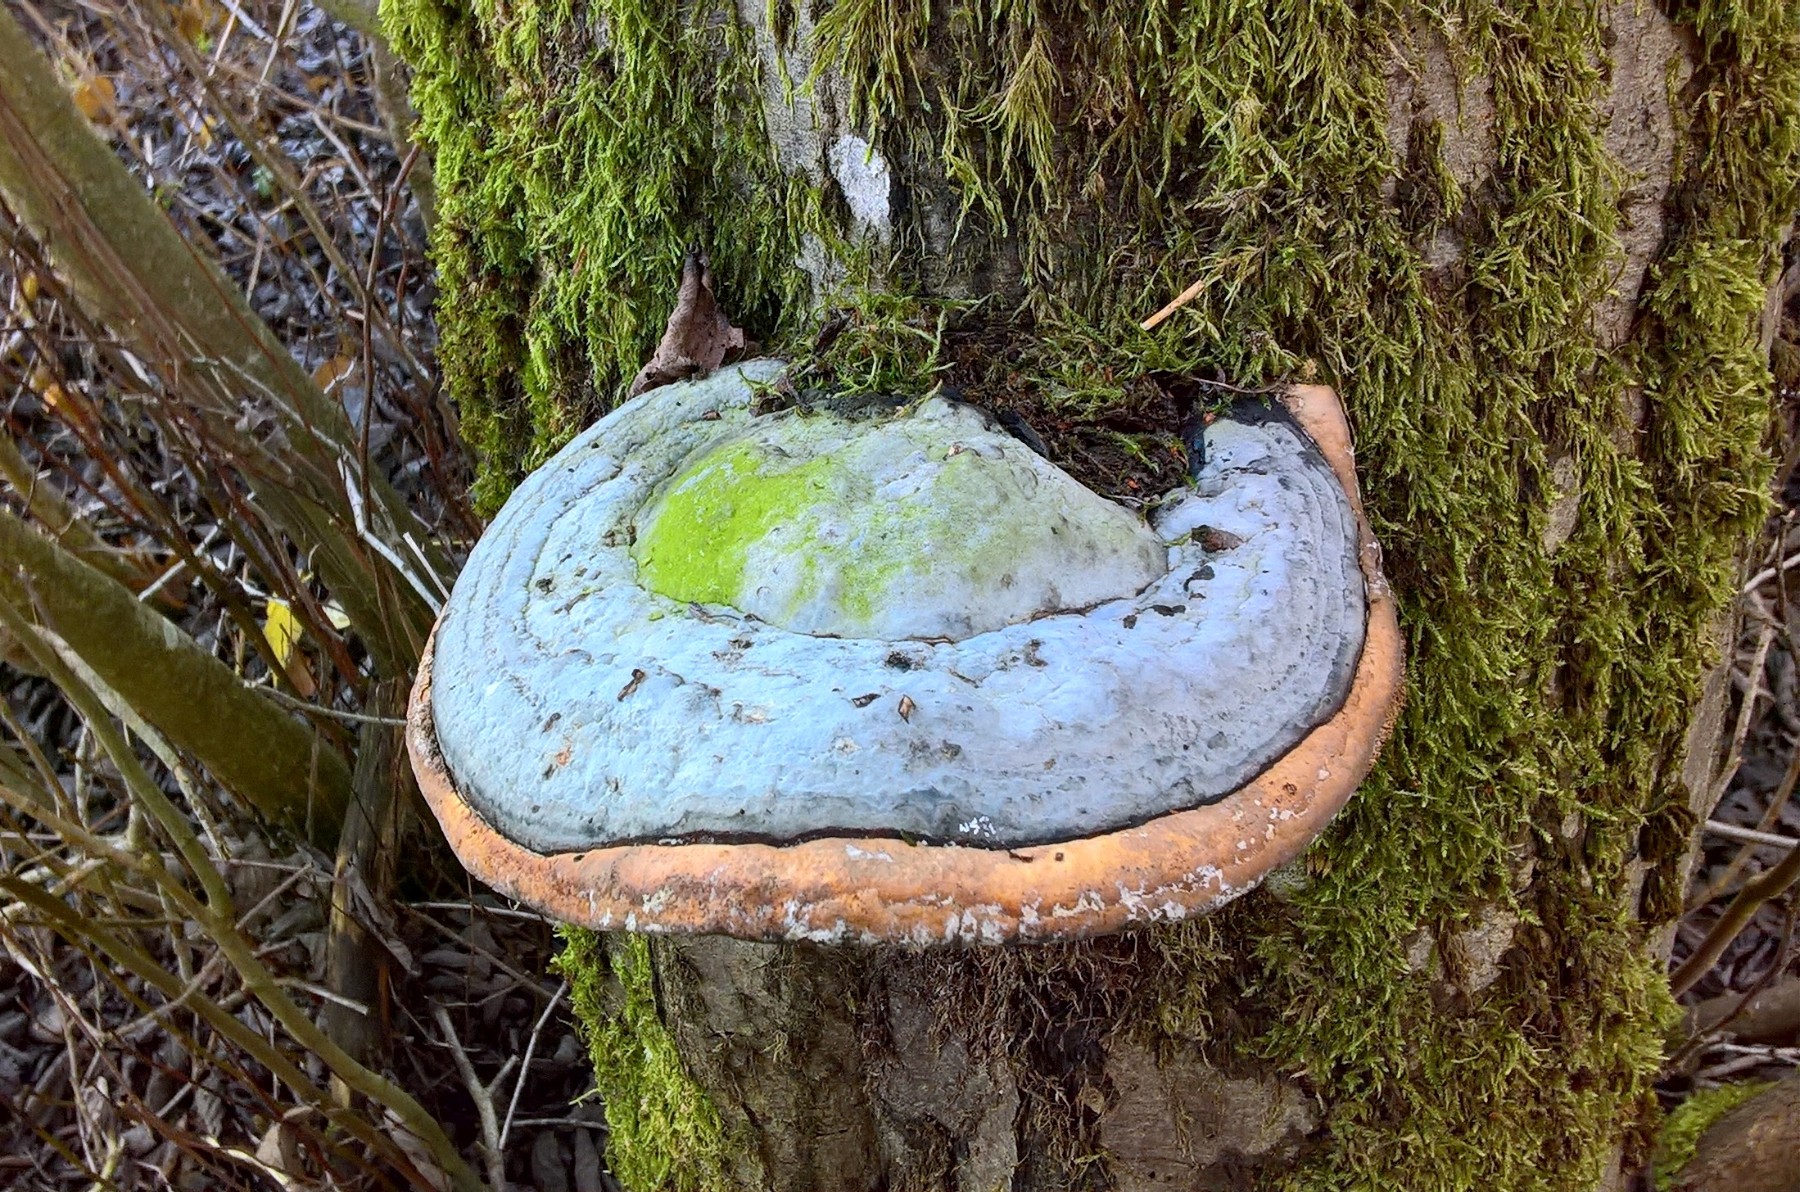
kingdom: Fungi
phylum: Basidiomycota
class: Agaricomycetes
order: Polyporales
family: Fomitopsidaceae
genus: Fomitopsis
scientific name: Fomitopsis pinicola
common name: randbæltet hovporesvamp
